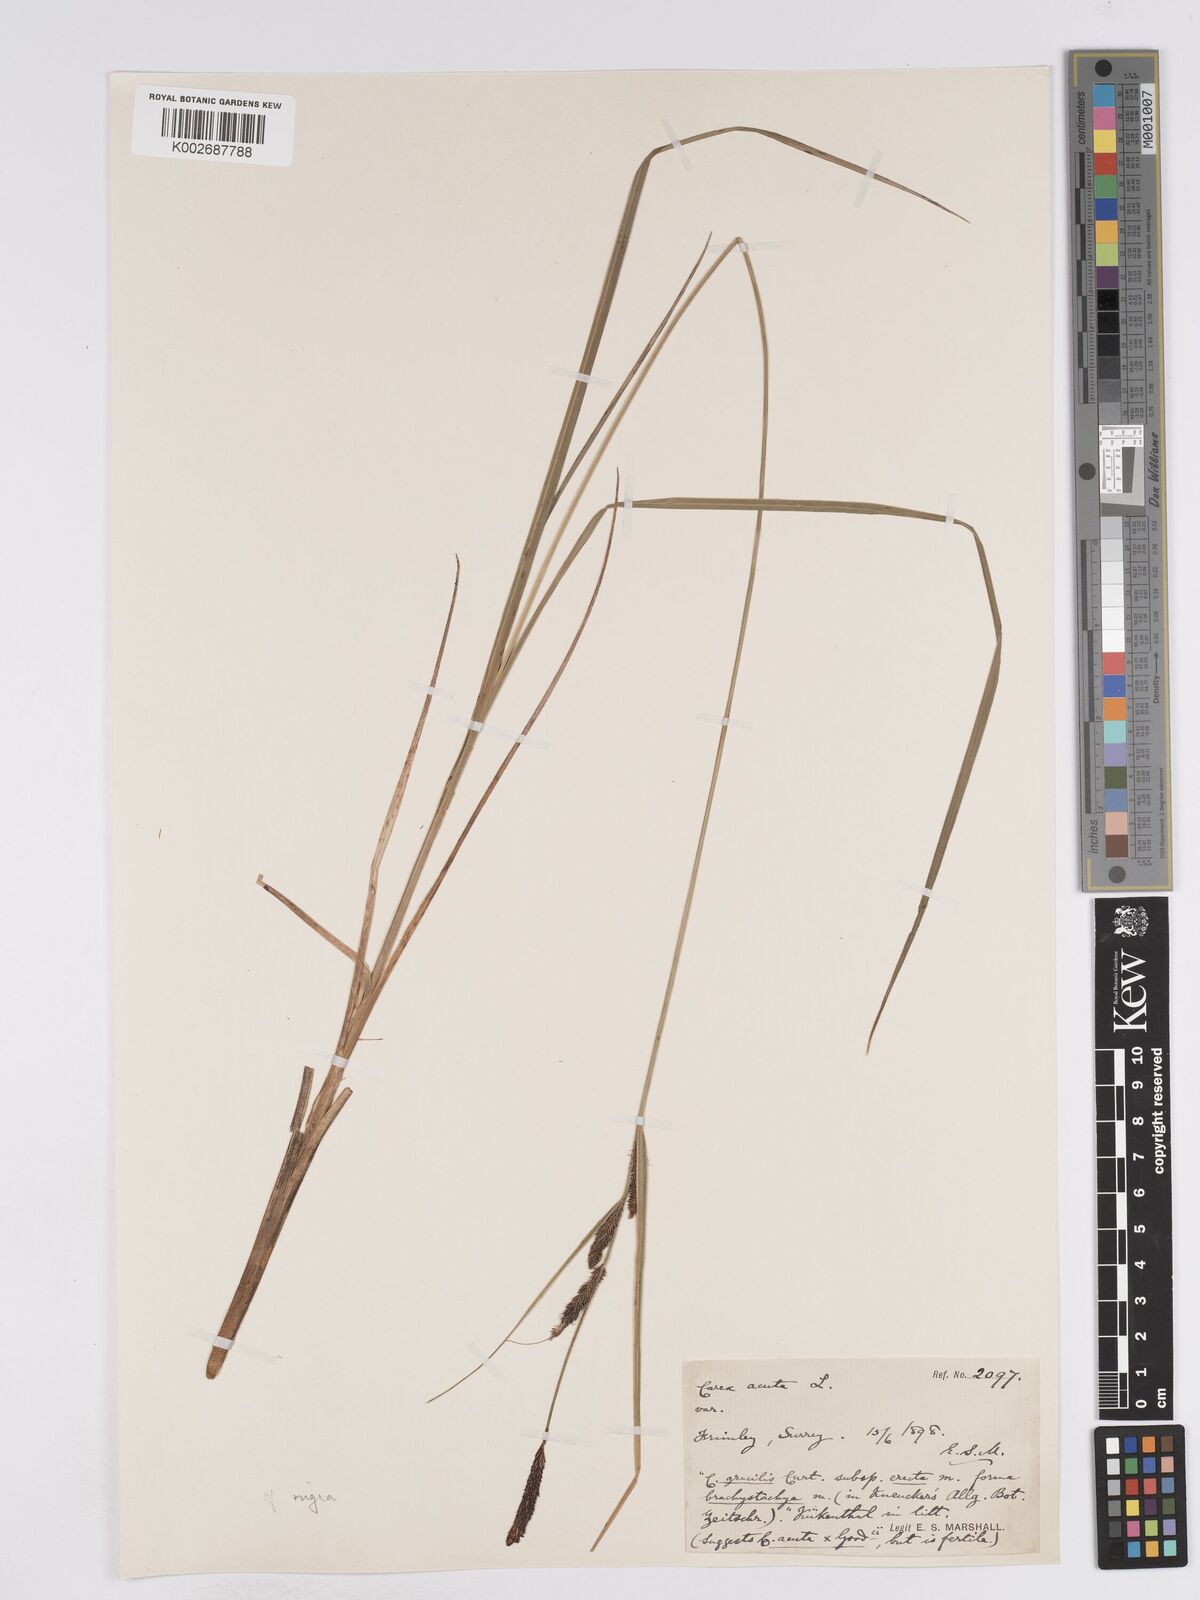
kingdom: Plantae
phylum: Tracheophyta
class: Liliopsida
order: Poales
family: Cyperaceae
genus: Carex
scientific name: Carex acuta
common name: Slender tufted-sedge
